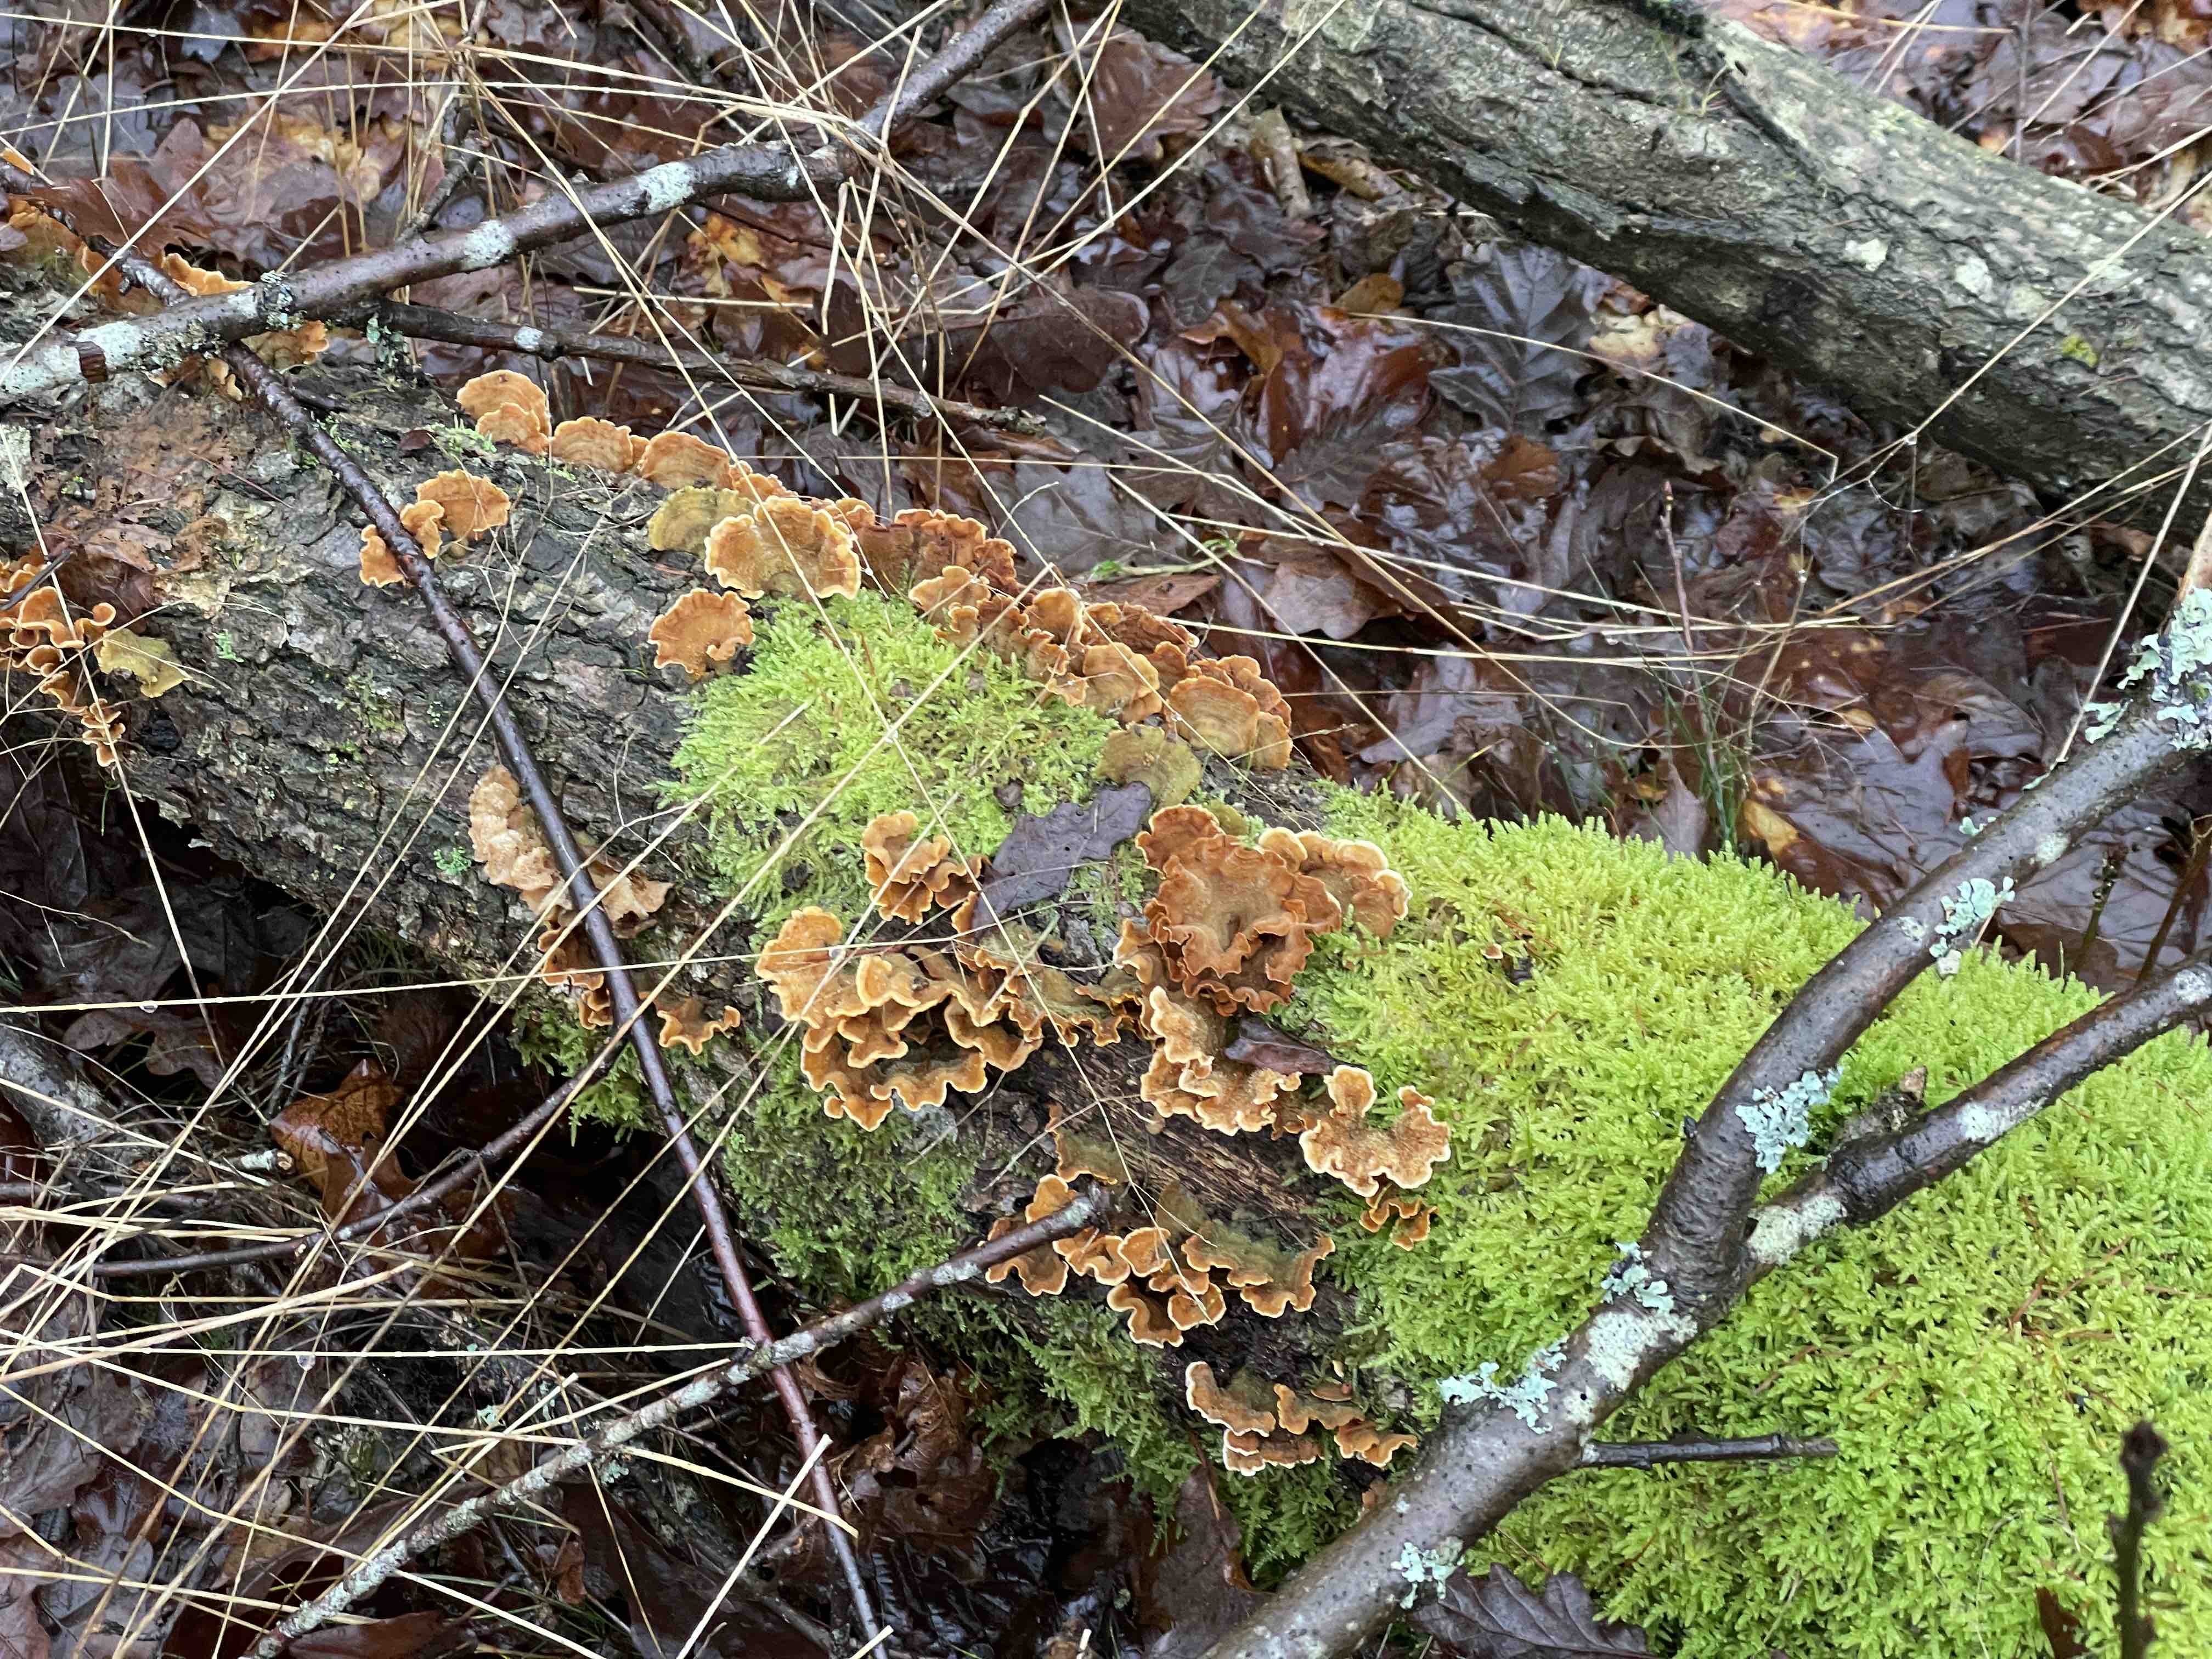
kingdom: Fungi
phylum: Basidiomycota
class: Agaricomycetes
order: Russulales
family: Stereaceae
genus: Stereum
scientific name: Stereum hirsutum
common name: håret lædersvamp
